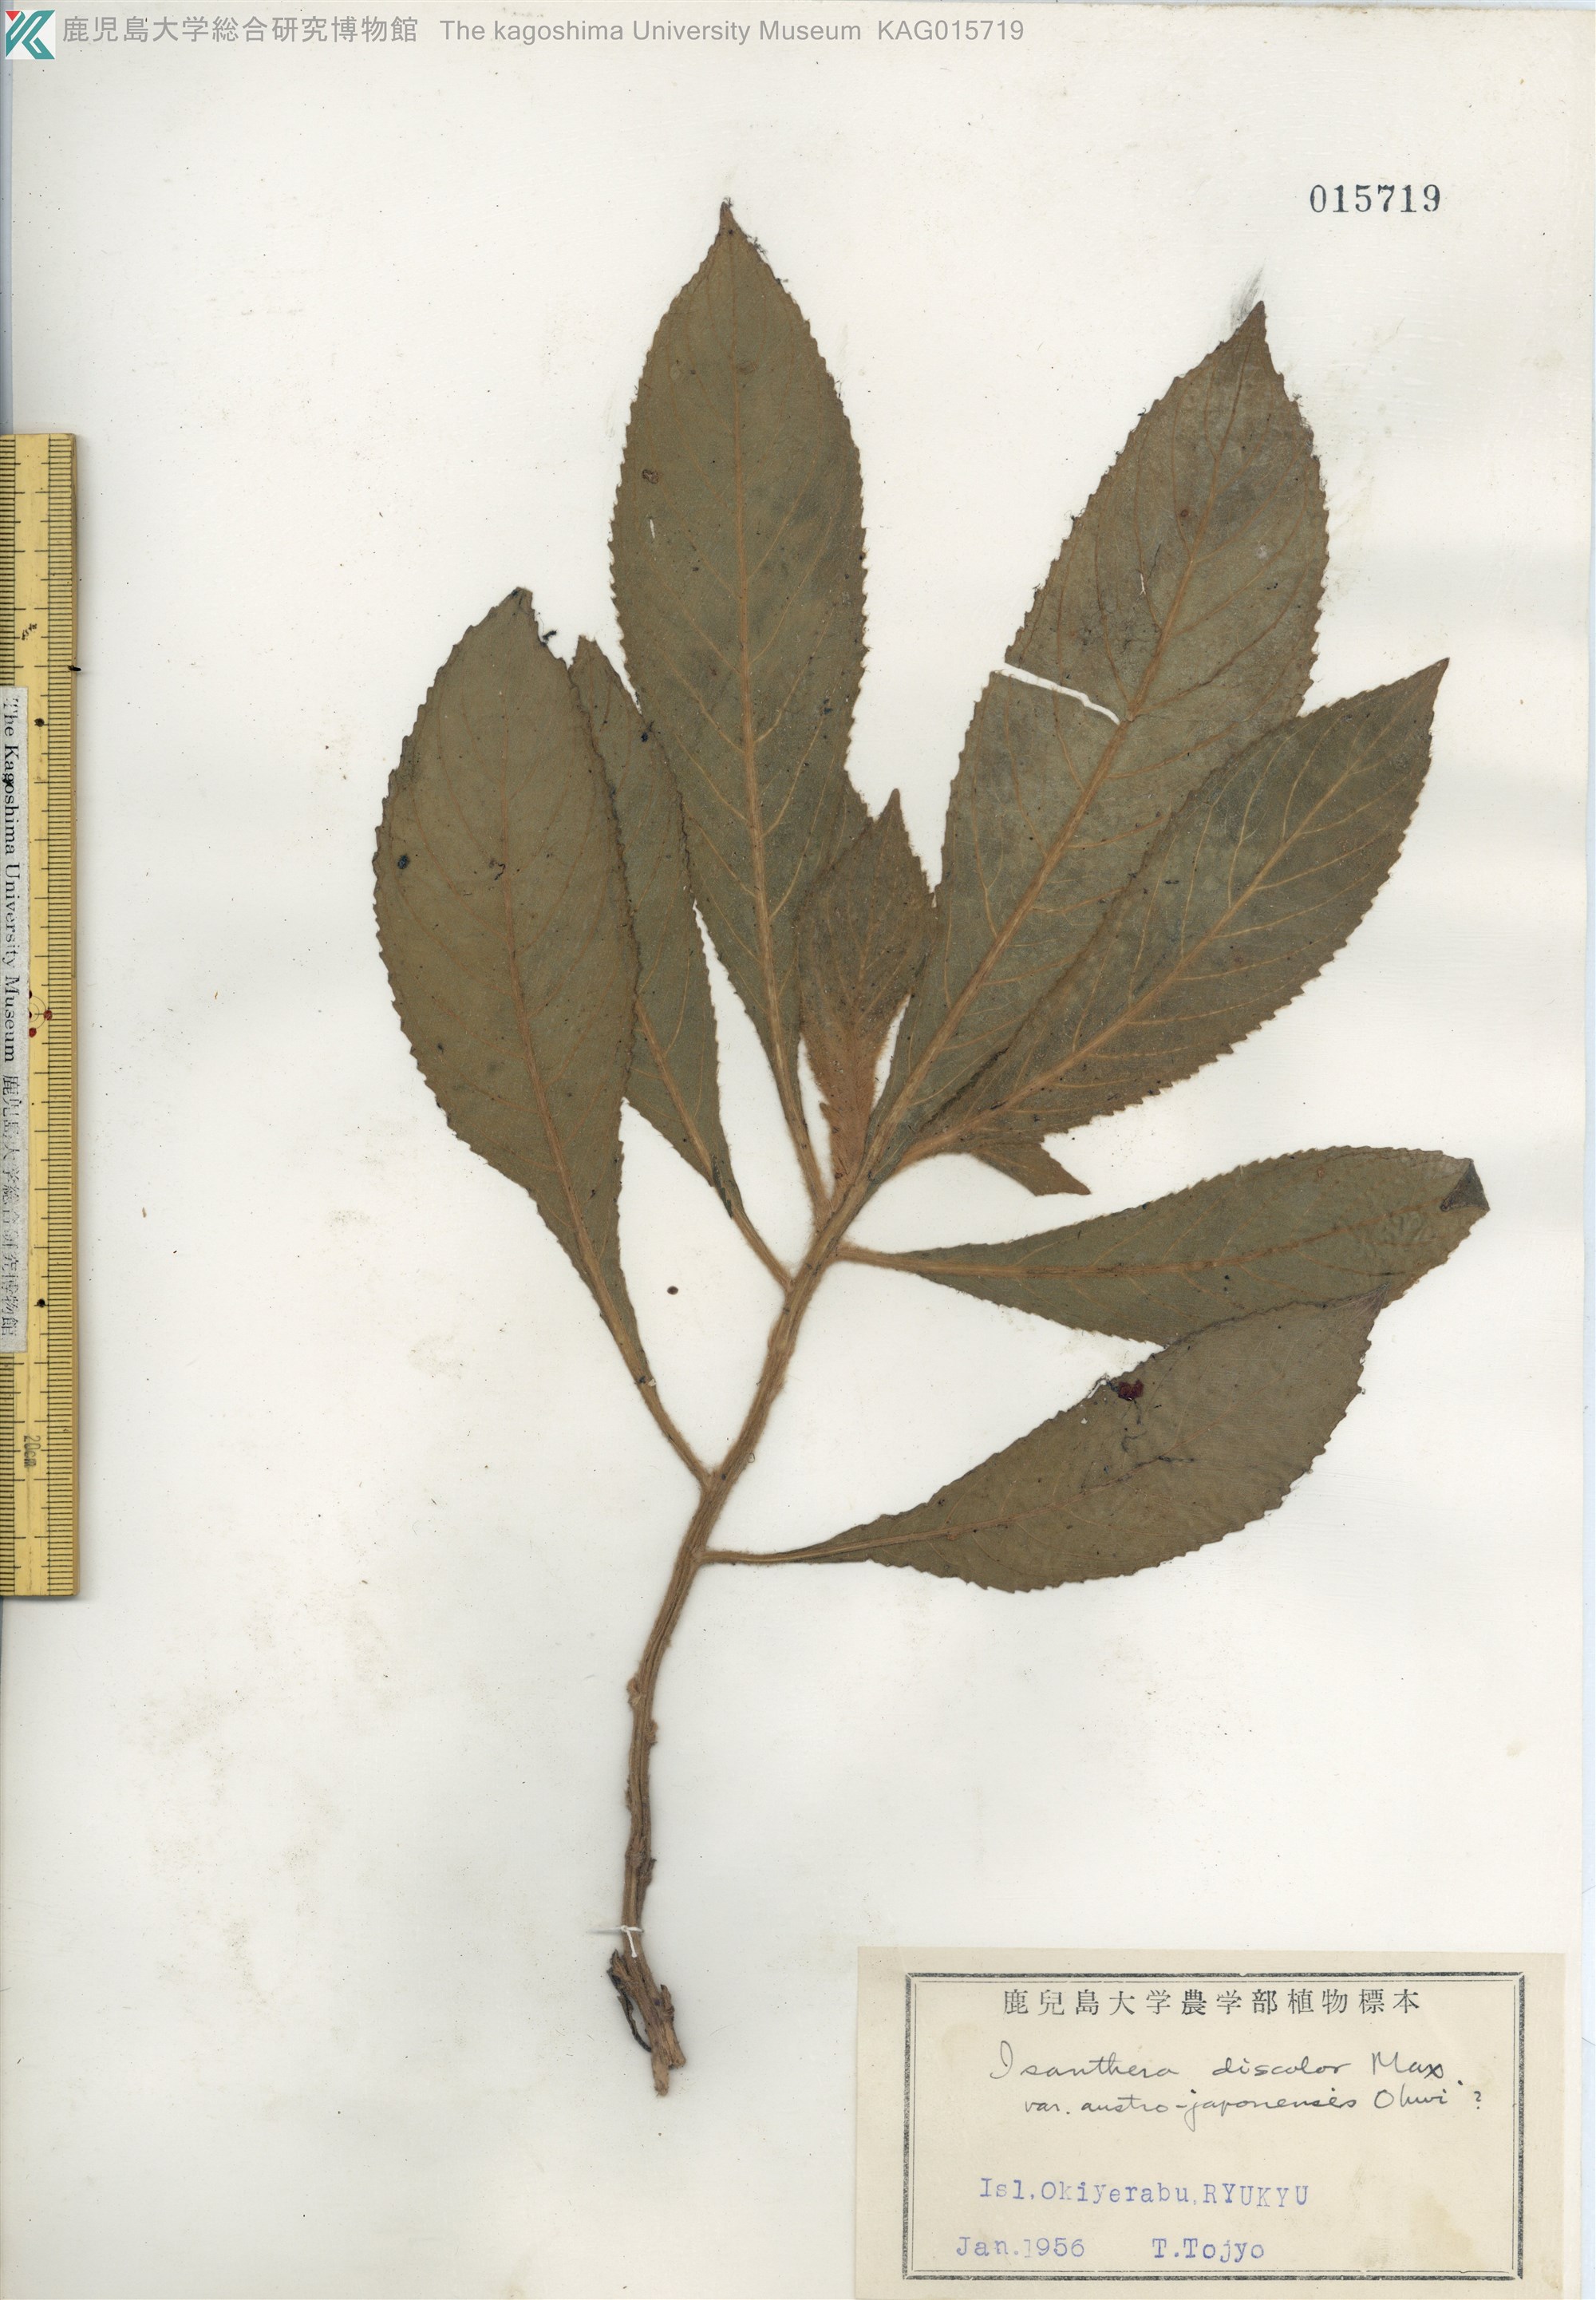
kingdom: Plantae
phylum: Tracheophyta
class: Magnoliopsida
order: Lamiales
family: Gesneriaceae
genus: Rhynchotechum
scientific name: Rhynchotechum discolor
